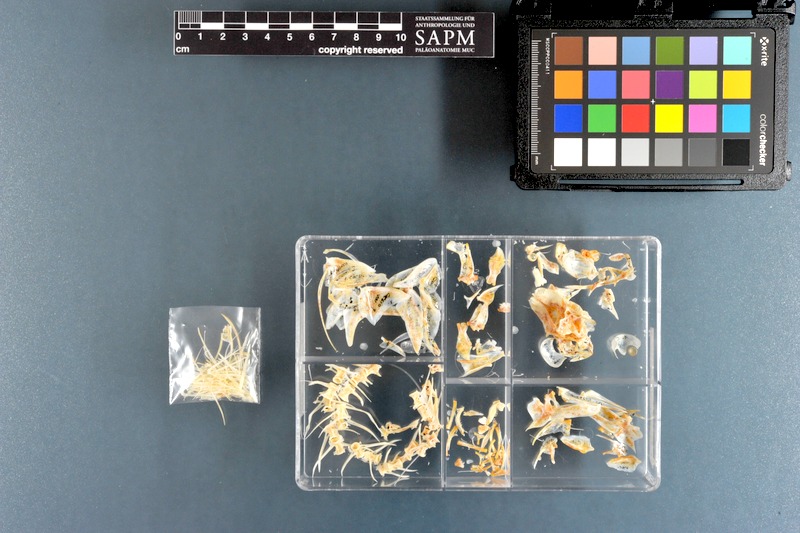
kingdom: Animalia
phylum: Chordata
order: Perciformes
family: Caesionidae
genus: Caesio
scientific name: Caesio varilineata
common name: Variable-lined fusilier
